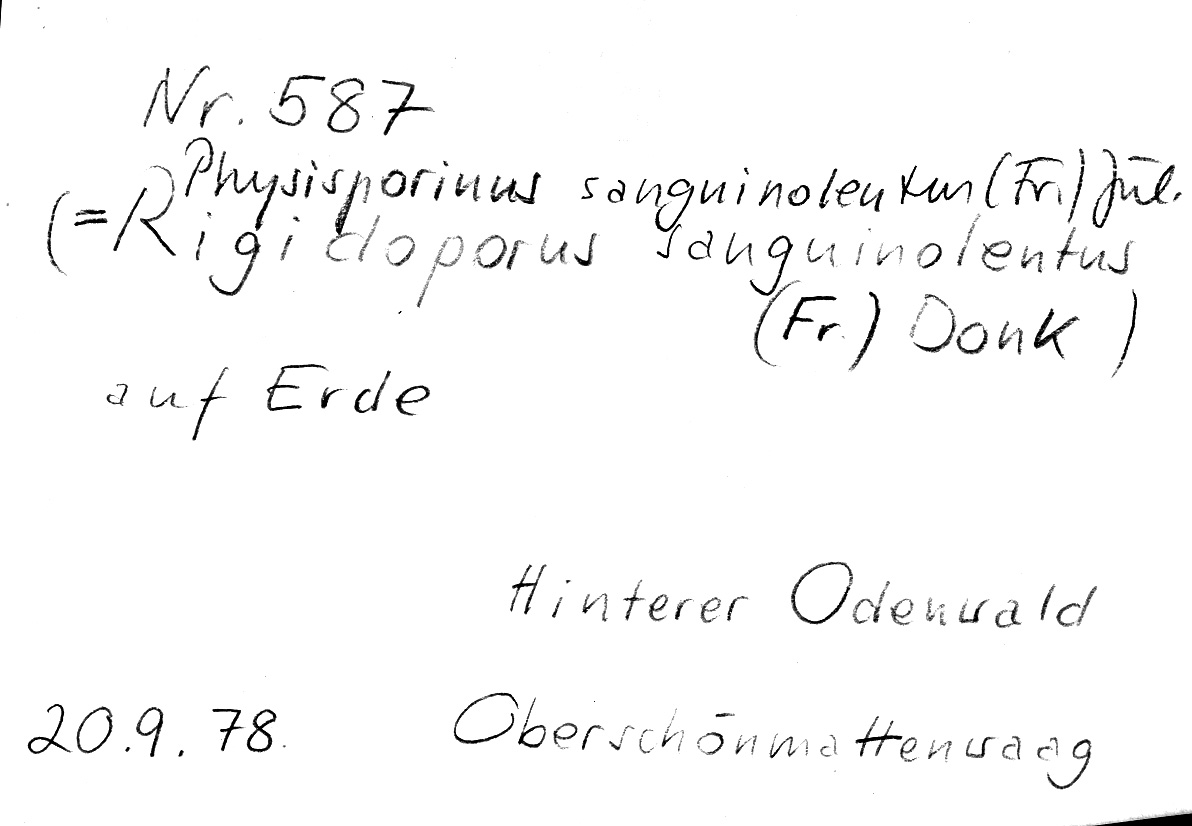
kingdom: Fungi
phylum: Basidiomycota
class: Agaricomycetes
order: Polyporales
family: Meripilaceae
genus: Rigidoporus
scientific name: Rigidoporus sanguinolentus
